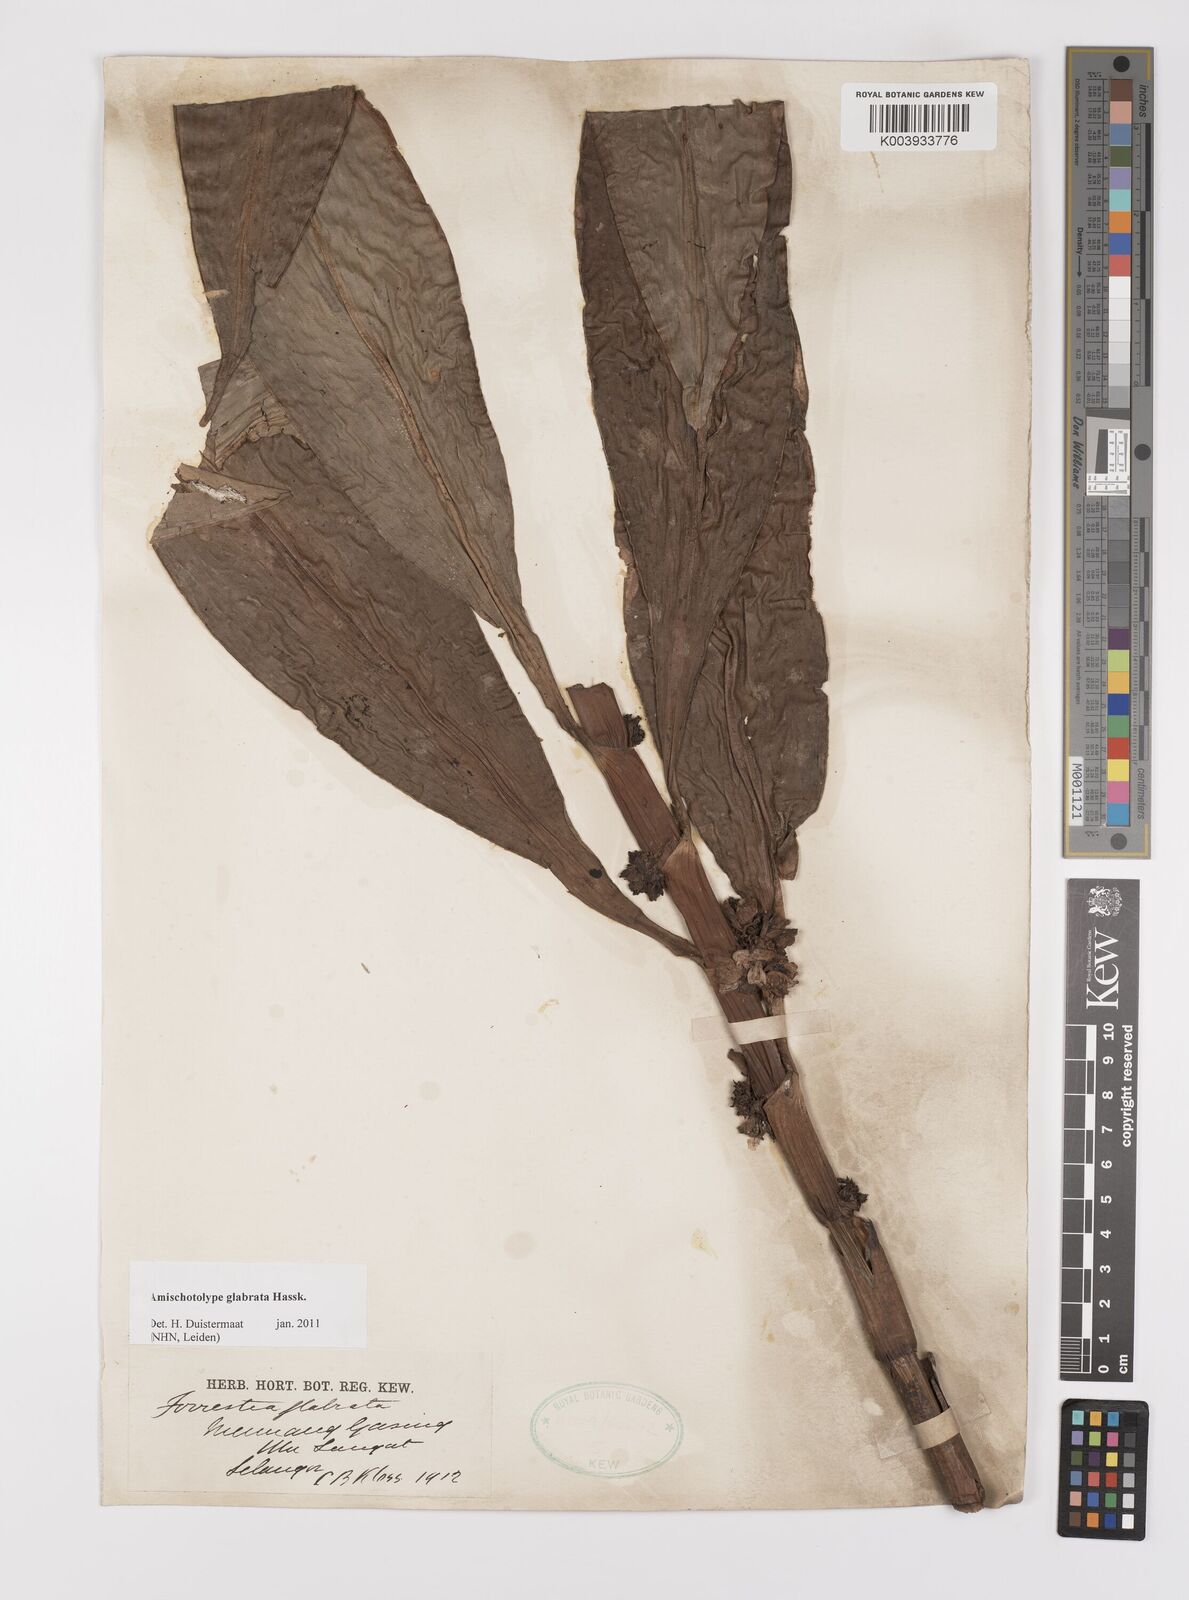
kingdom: Plantae
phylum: Tracheophyta
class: Liliopsida
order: Commelinales
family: Commelinaceae
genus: Amischotolype
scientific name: Amischotolype glabrata
